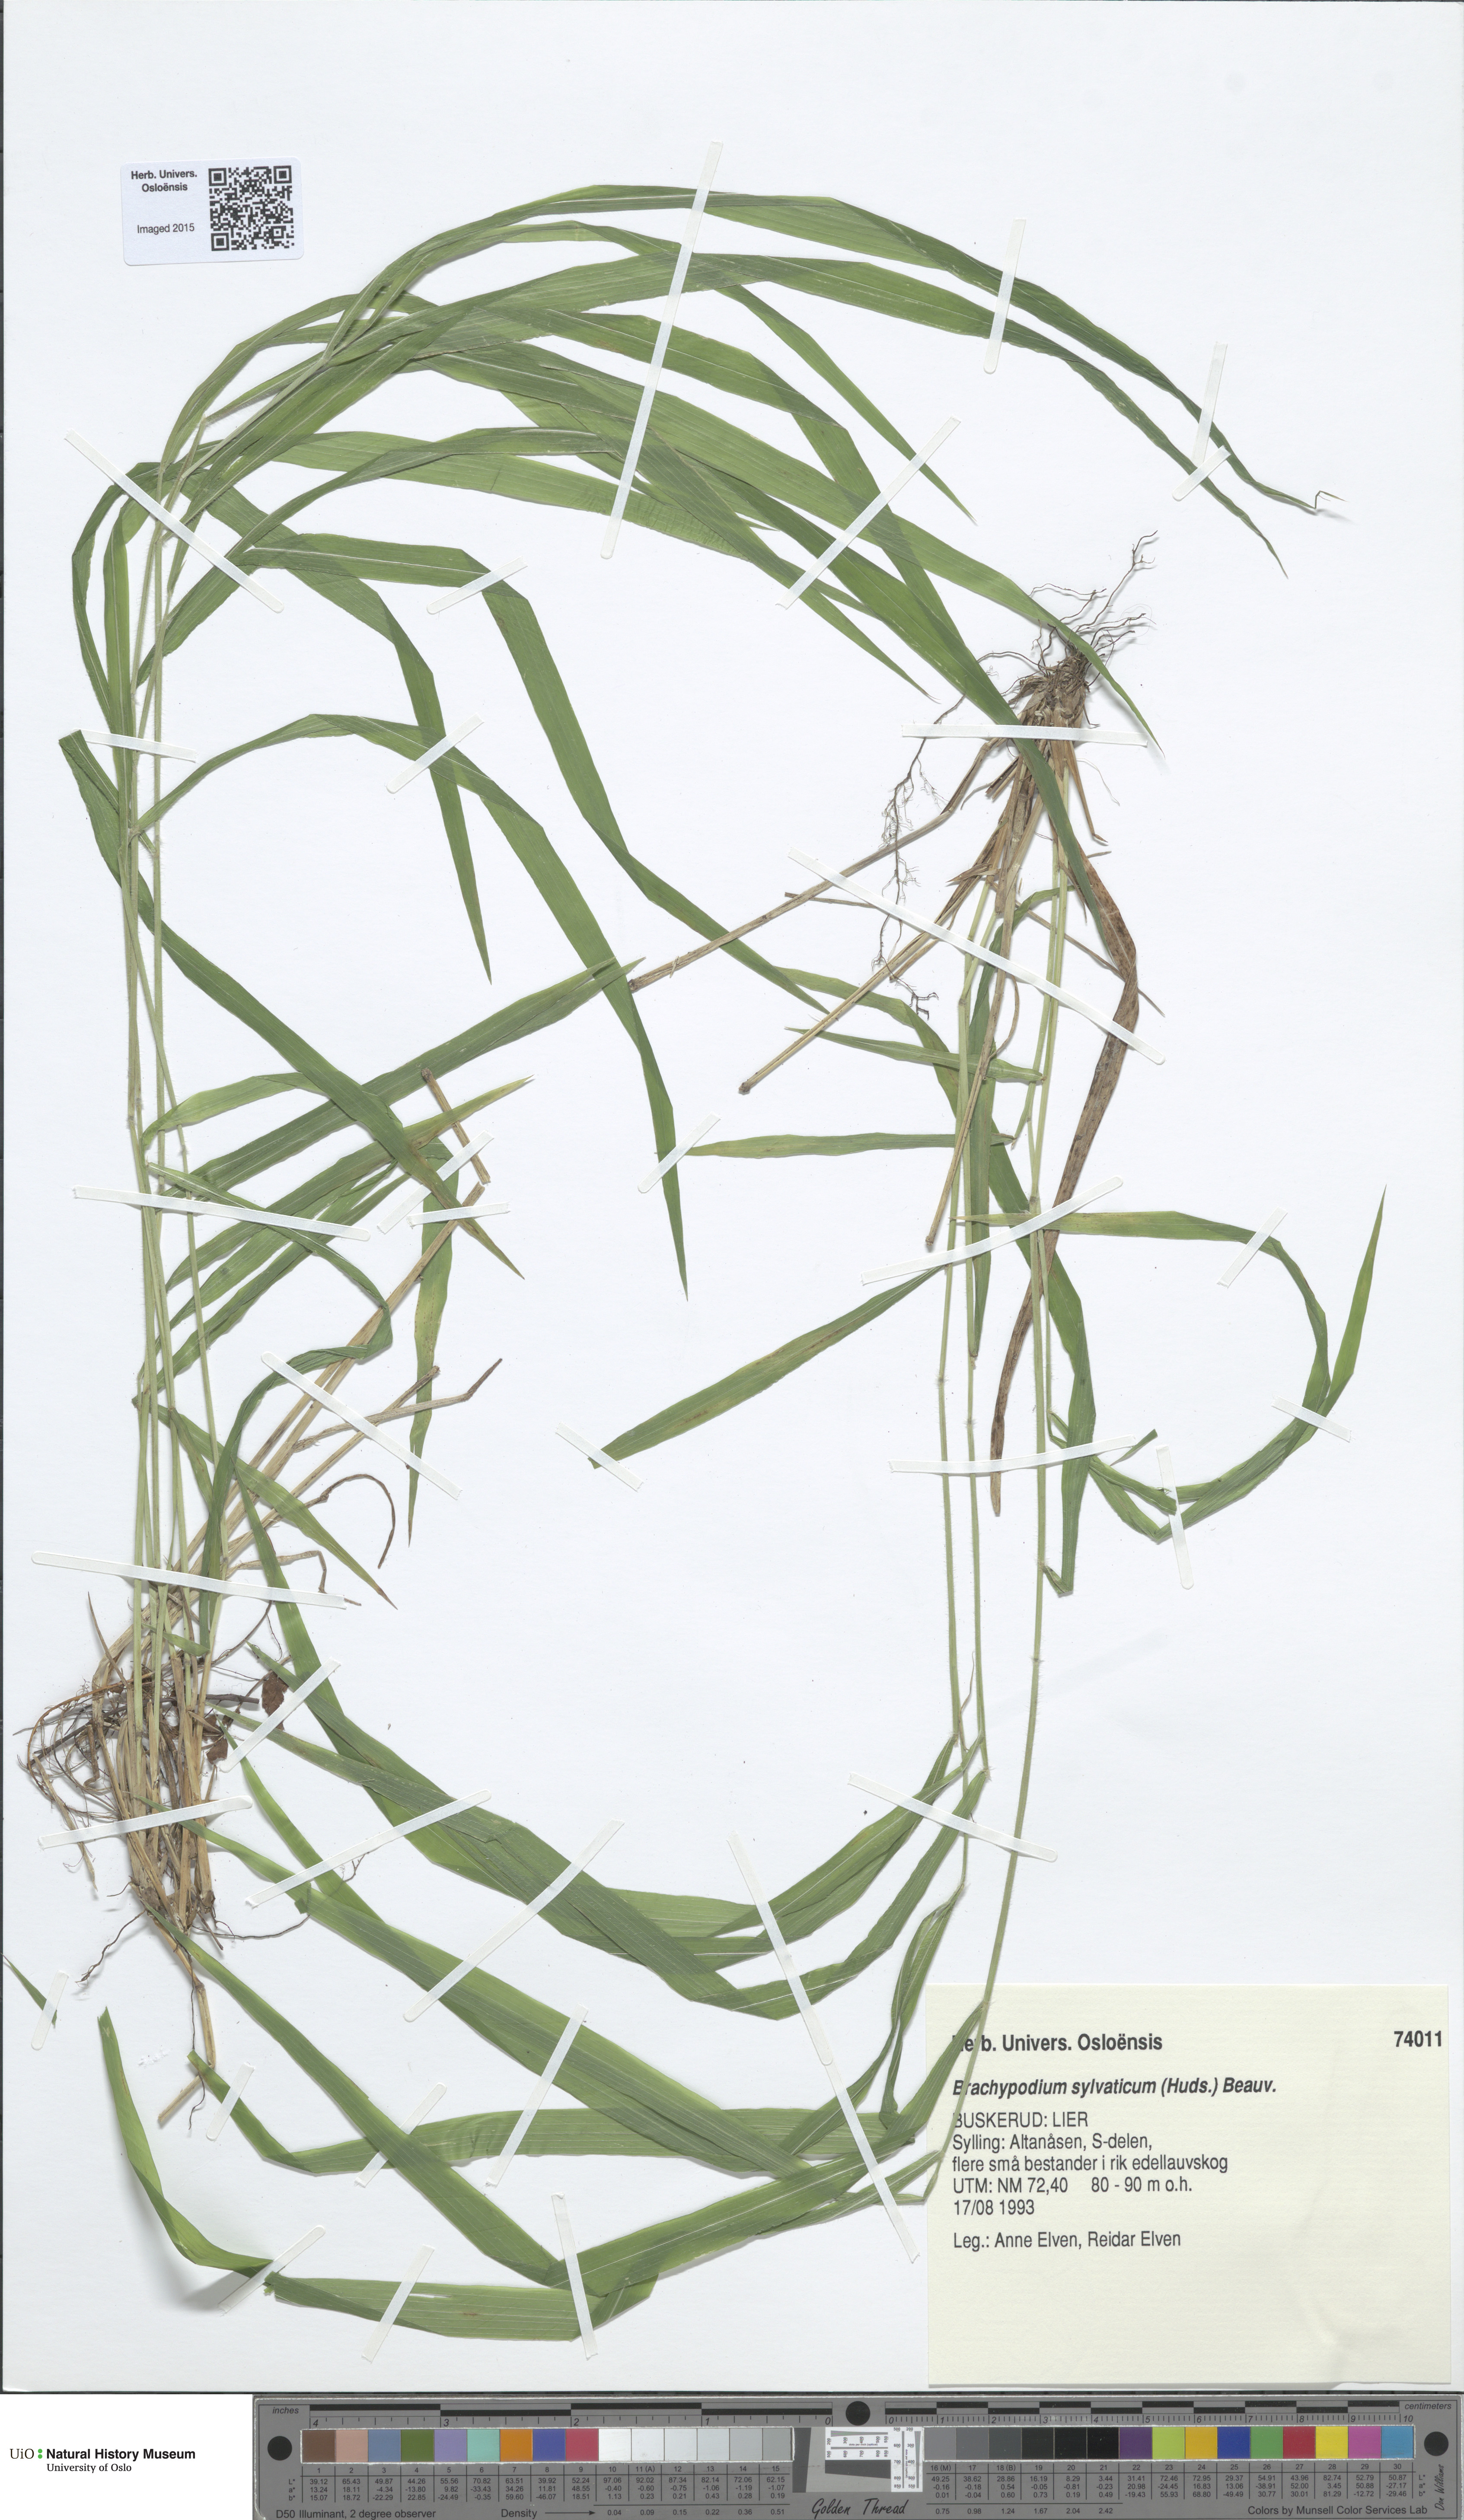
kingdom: Plantae
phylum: Tracheophyta
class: Liliopsida
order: Poales
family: Poaceae
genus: Brachypodium
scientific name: Brachypodium sylvaticum
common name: False-brome
